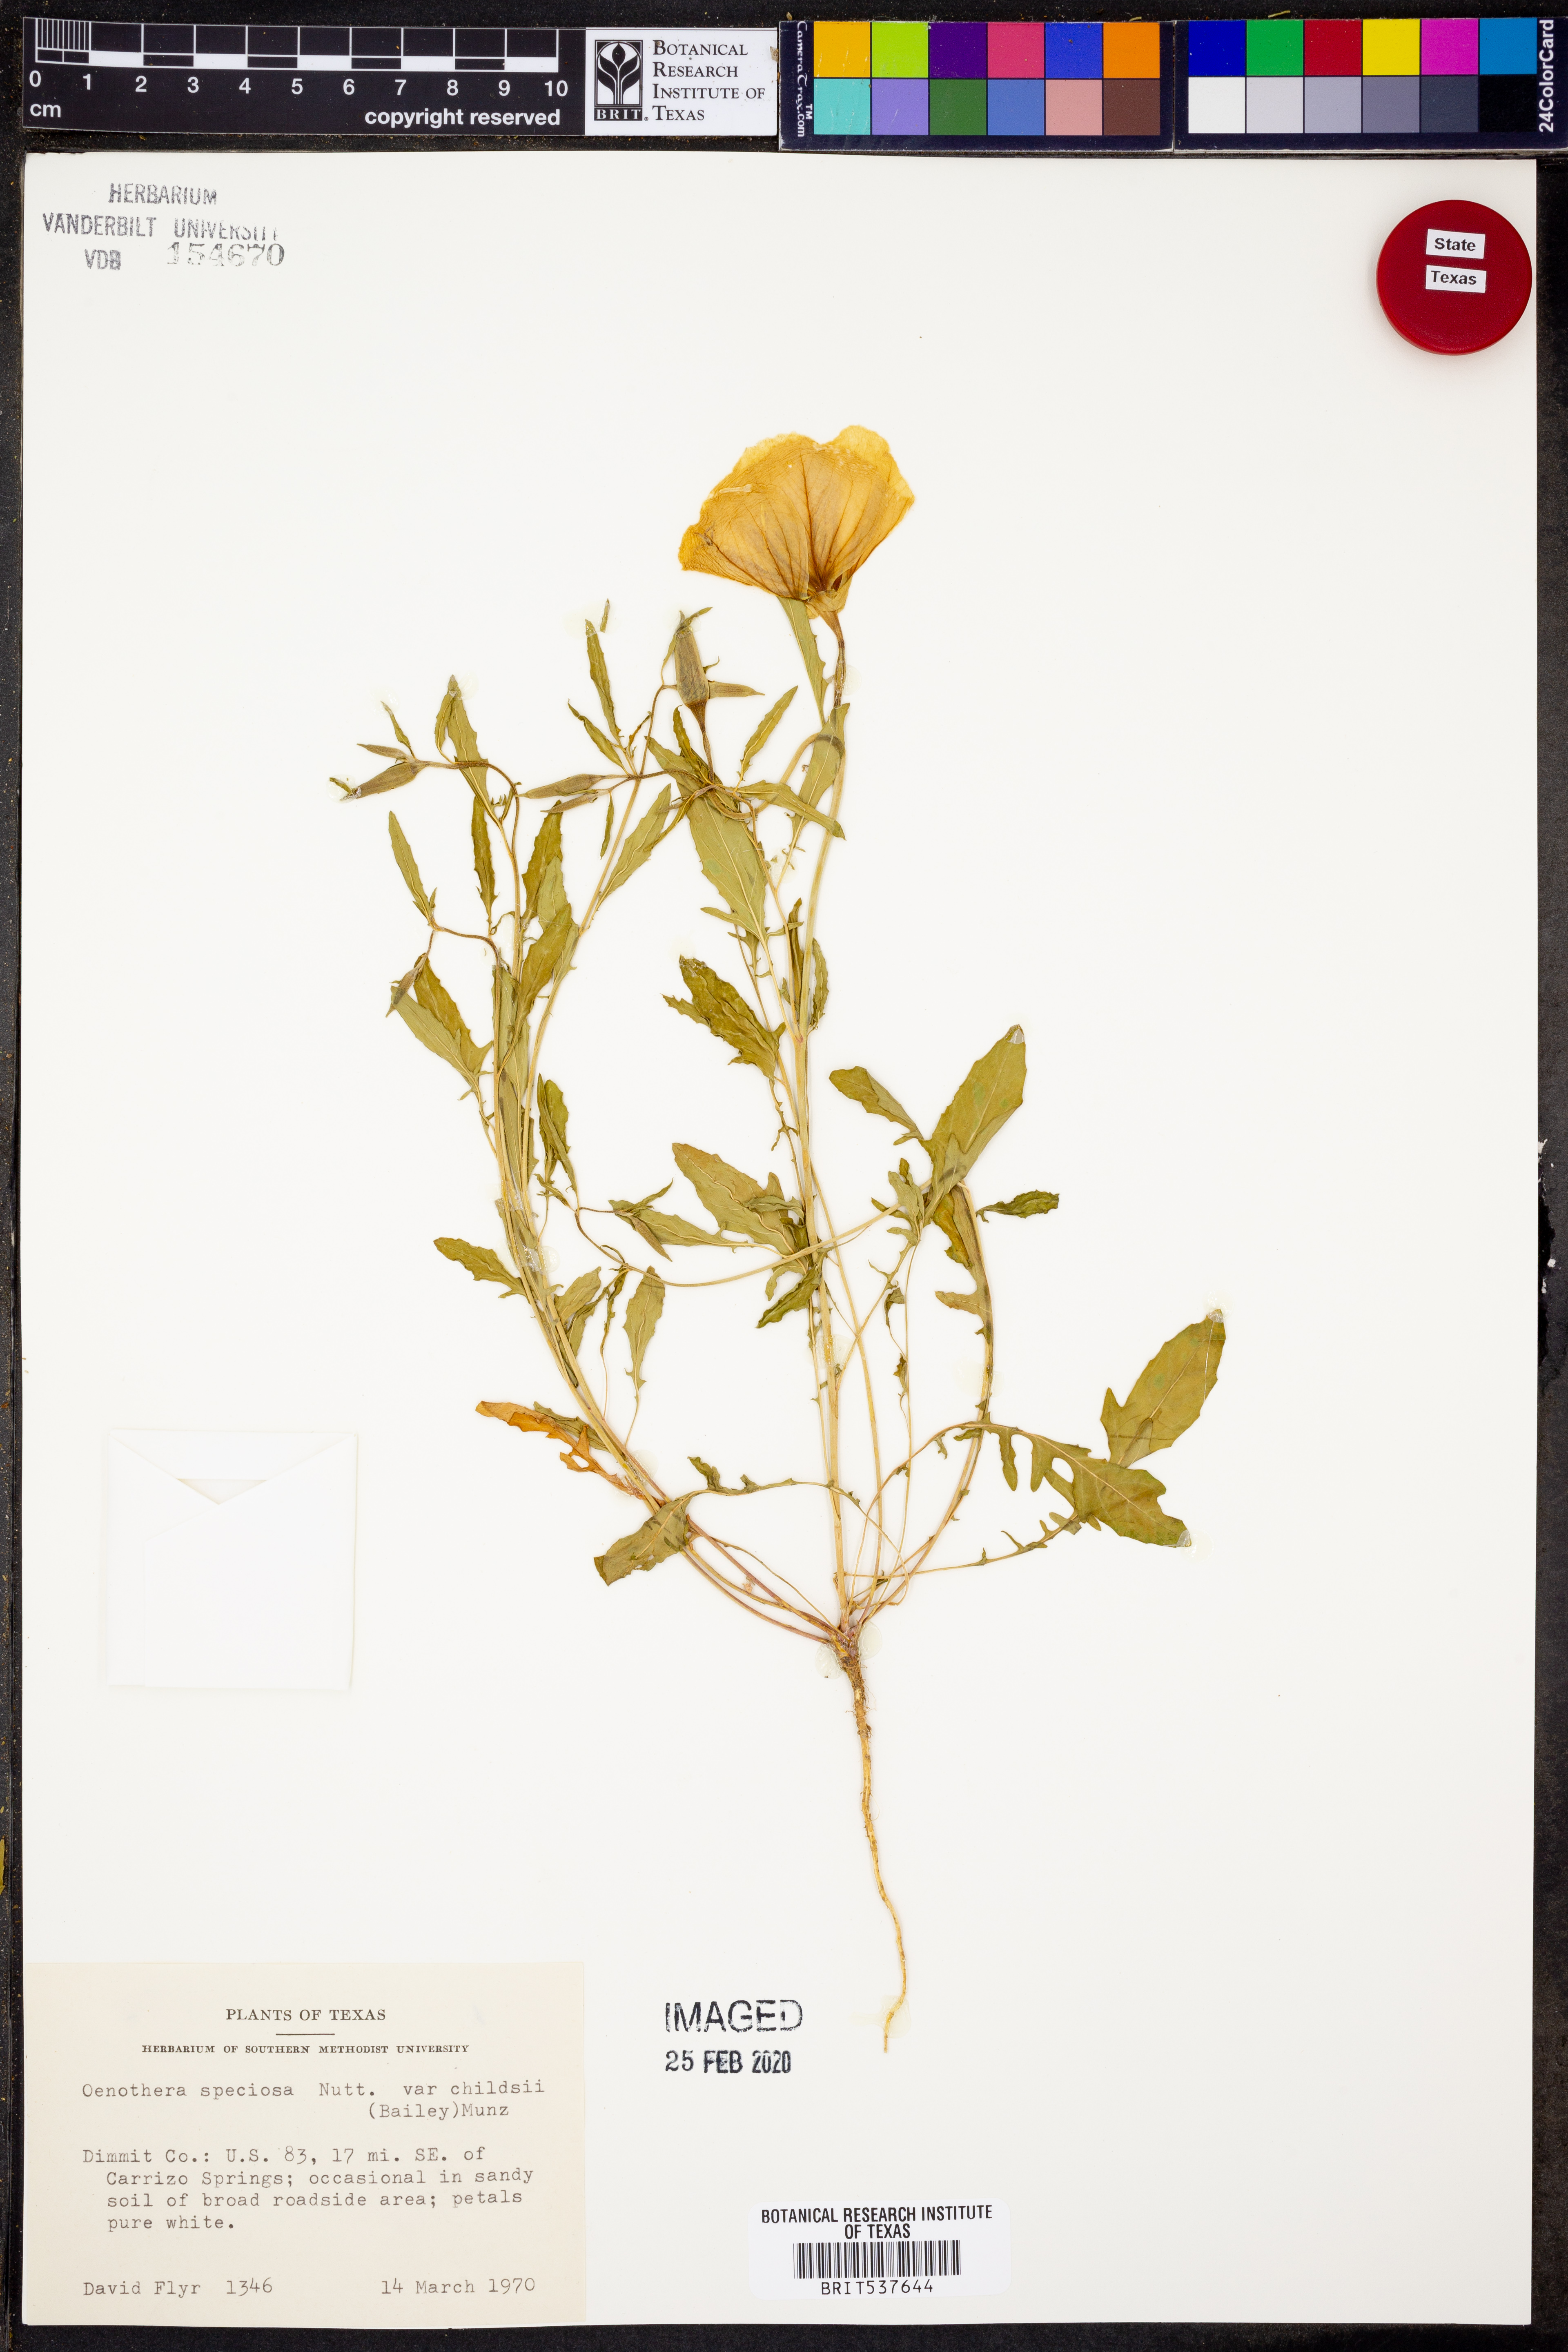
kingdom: Plantae
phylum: Tracheophyta
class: Magnoliopsida
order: Myrtales
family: Onagraceae
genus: Oenothera
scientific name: Oenothera speciosa
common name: White evening-primrose
